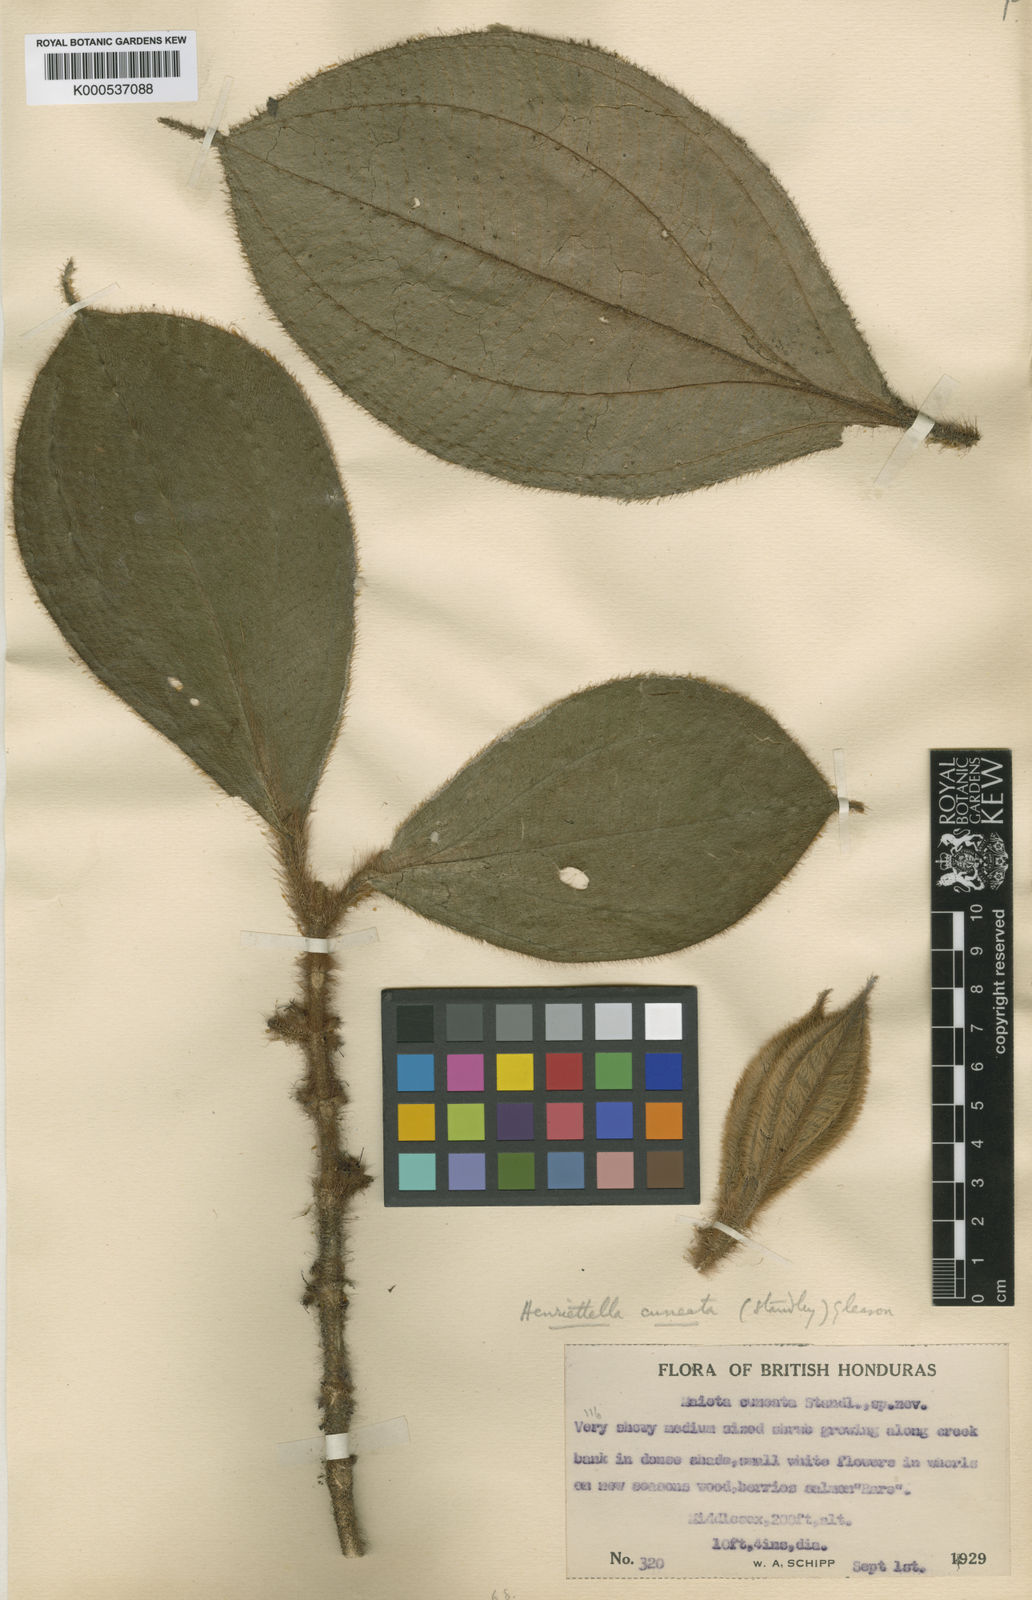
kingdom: Plantae
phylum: Tracheophyta
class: Magnoliopsida
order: Myrtales
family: Melastomataceae
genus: Henriettea
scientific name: Henriettea cuneata
